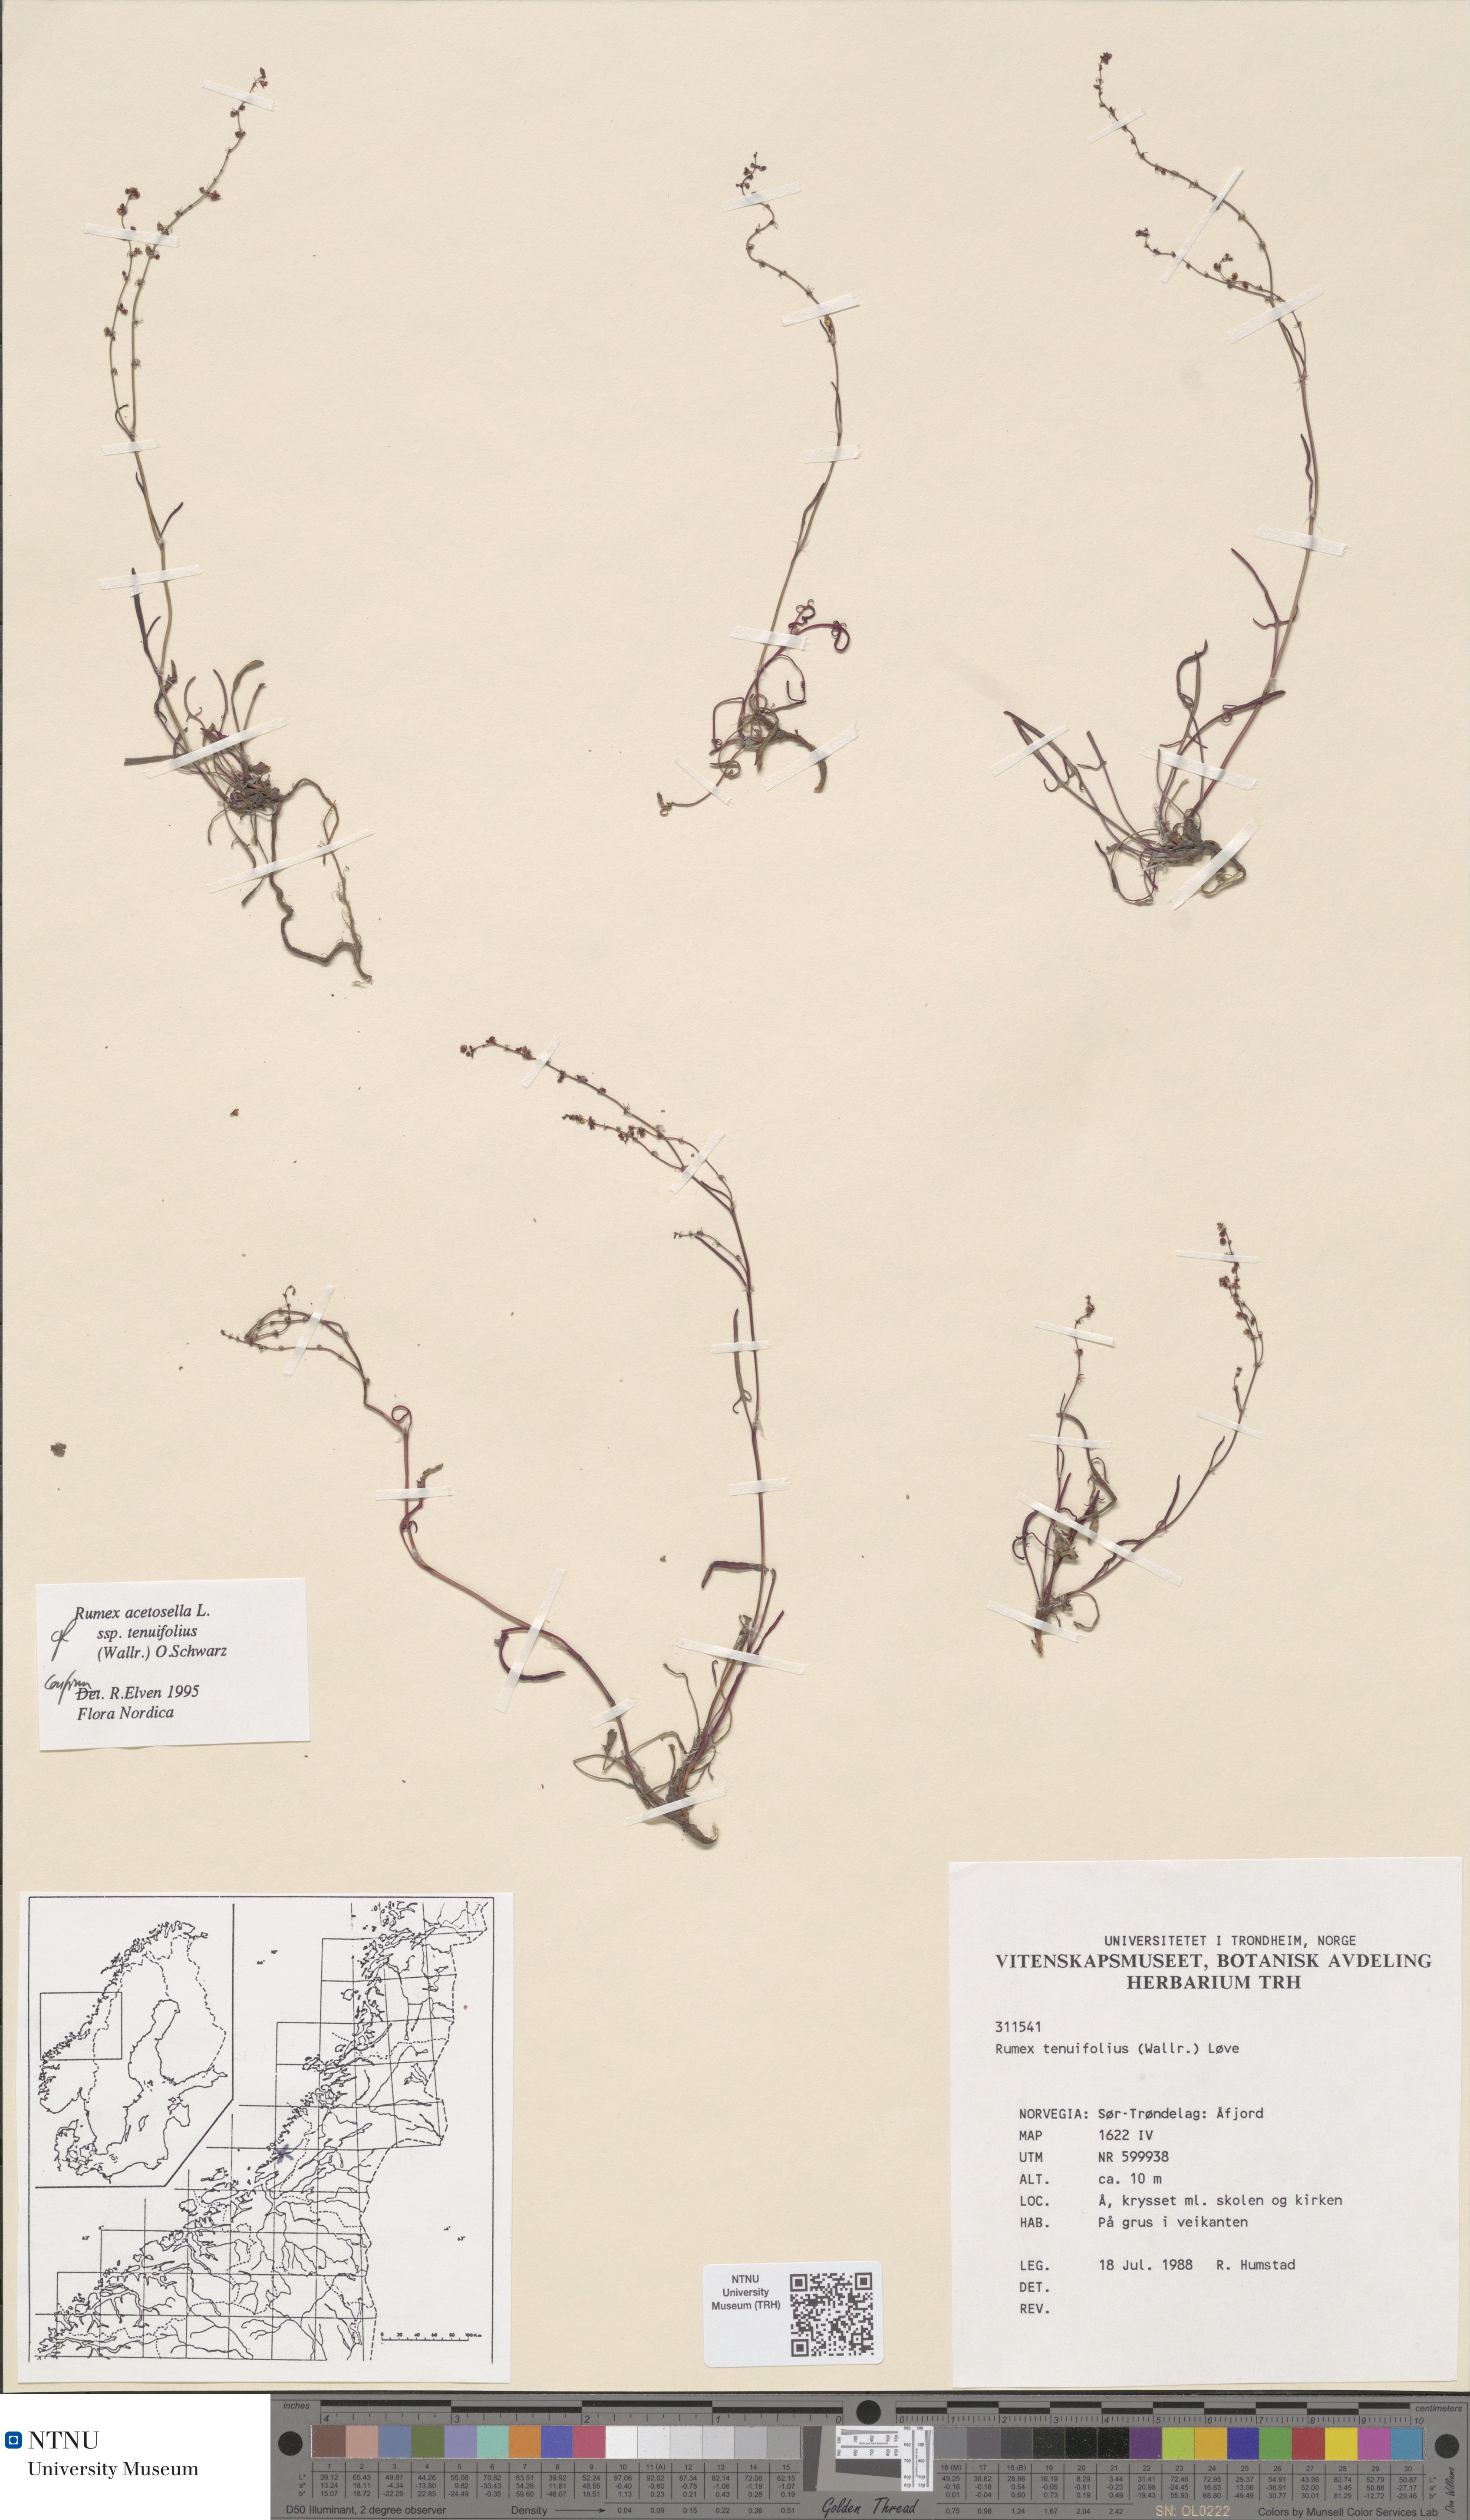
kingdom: Plantae
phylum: Tracheophyta
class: Magnoliopsida
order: Caryophyllales
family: Polygonaceae
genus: Rumex
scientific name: Rumex acetosella
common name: Common sheep sorrel
